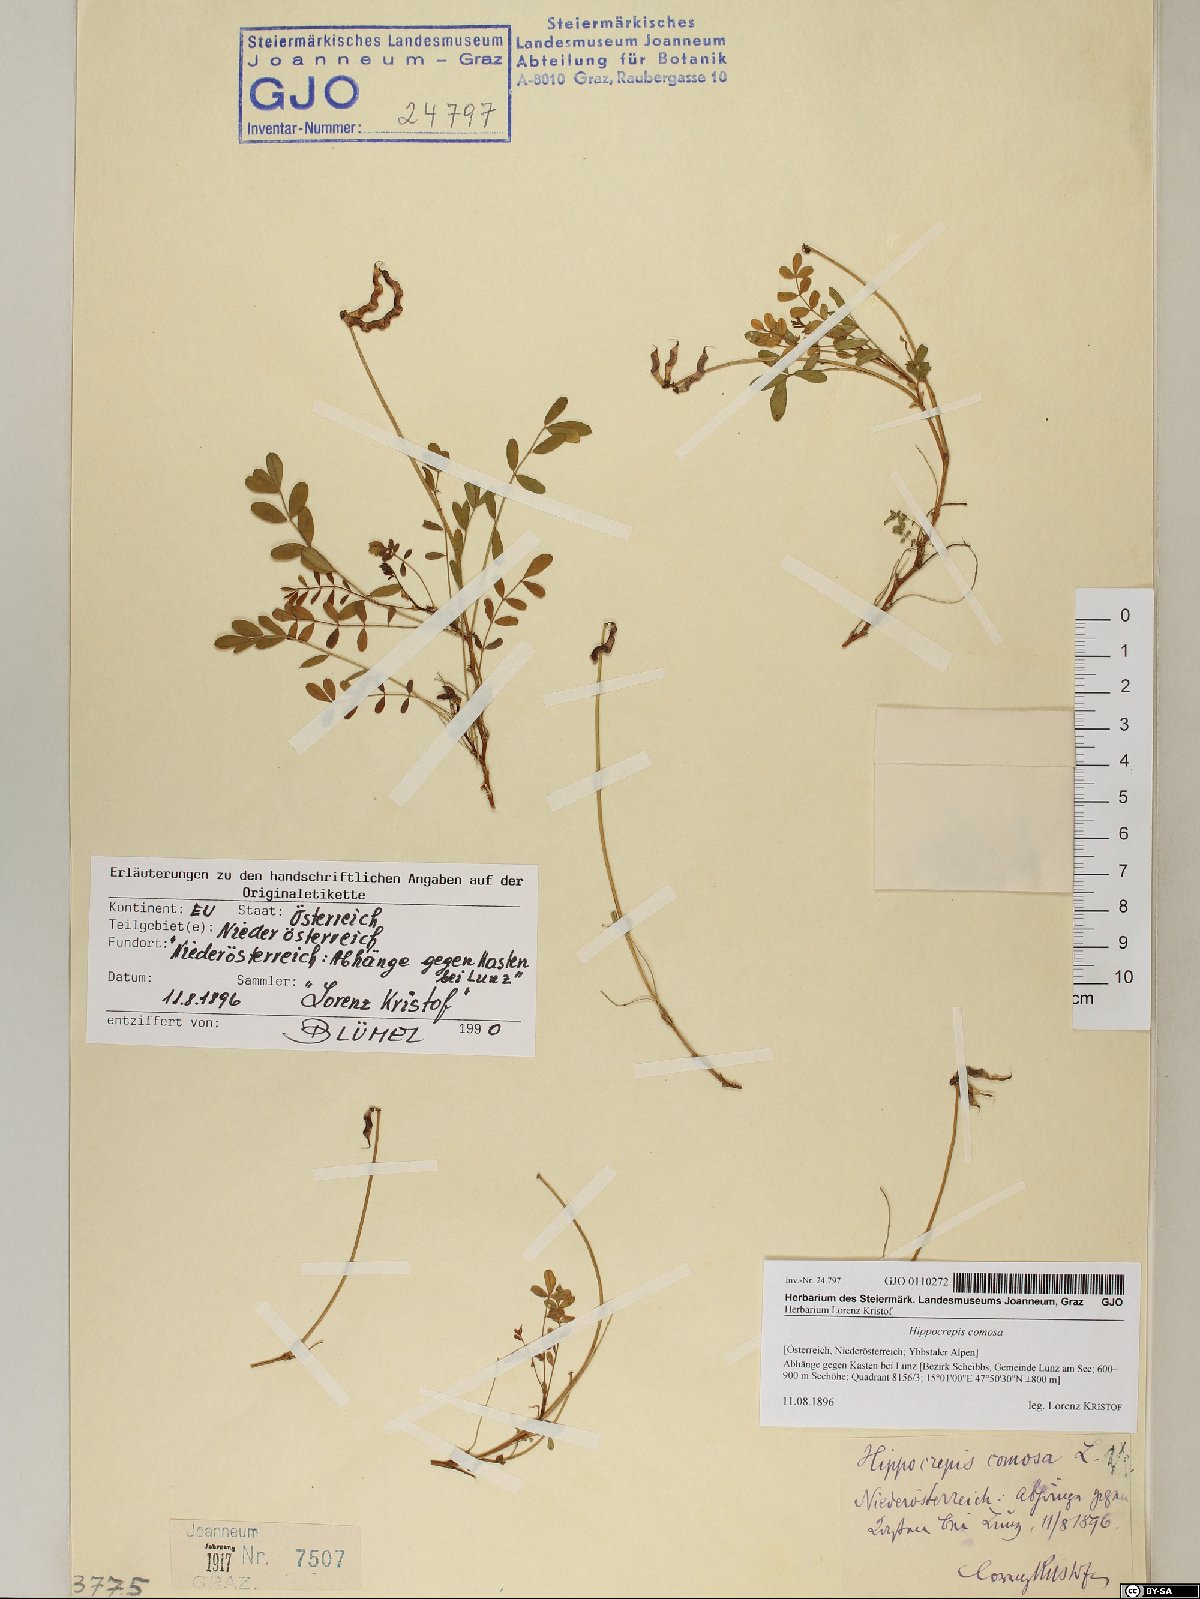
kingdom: Plantae
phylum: Tracheophyta
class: Magnoliopsida
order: Fabales
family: Fabaceae
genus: Hippocrepis
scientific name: Hippocrepis comosa
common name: Horseshoe vetch
